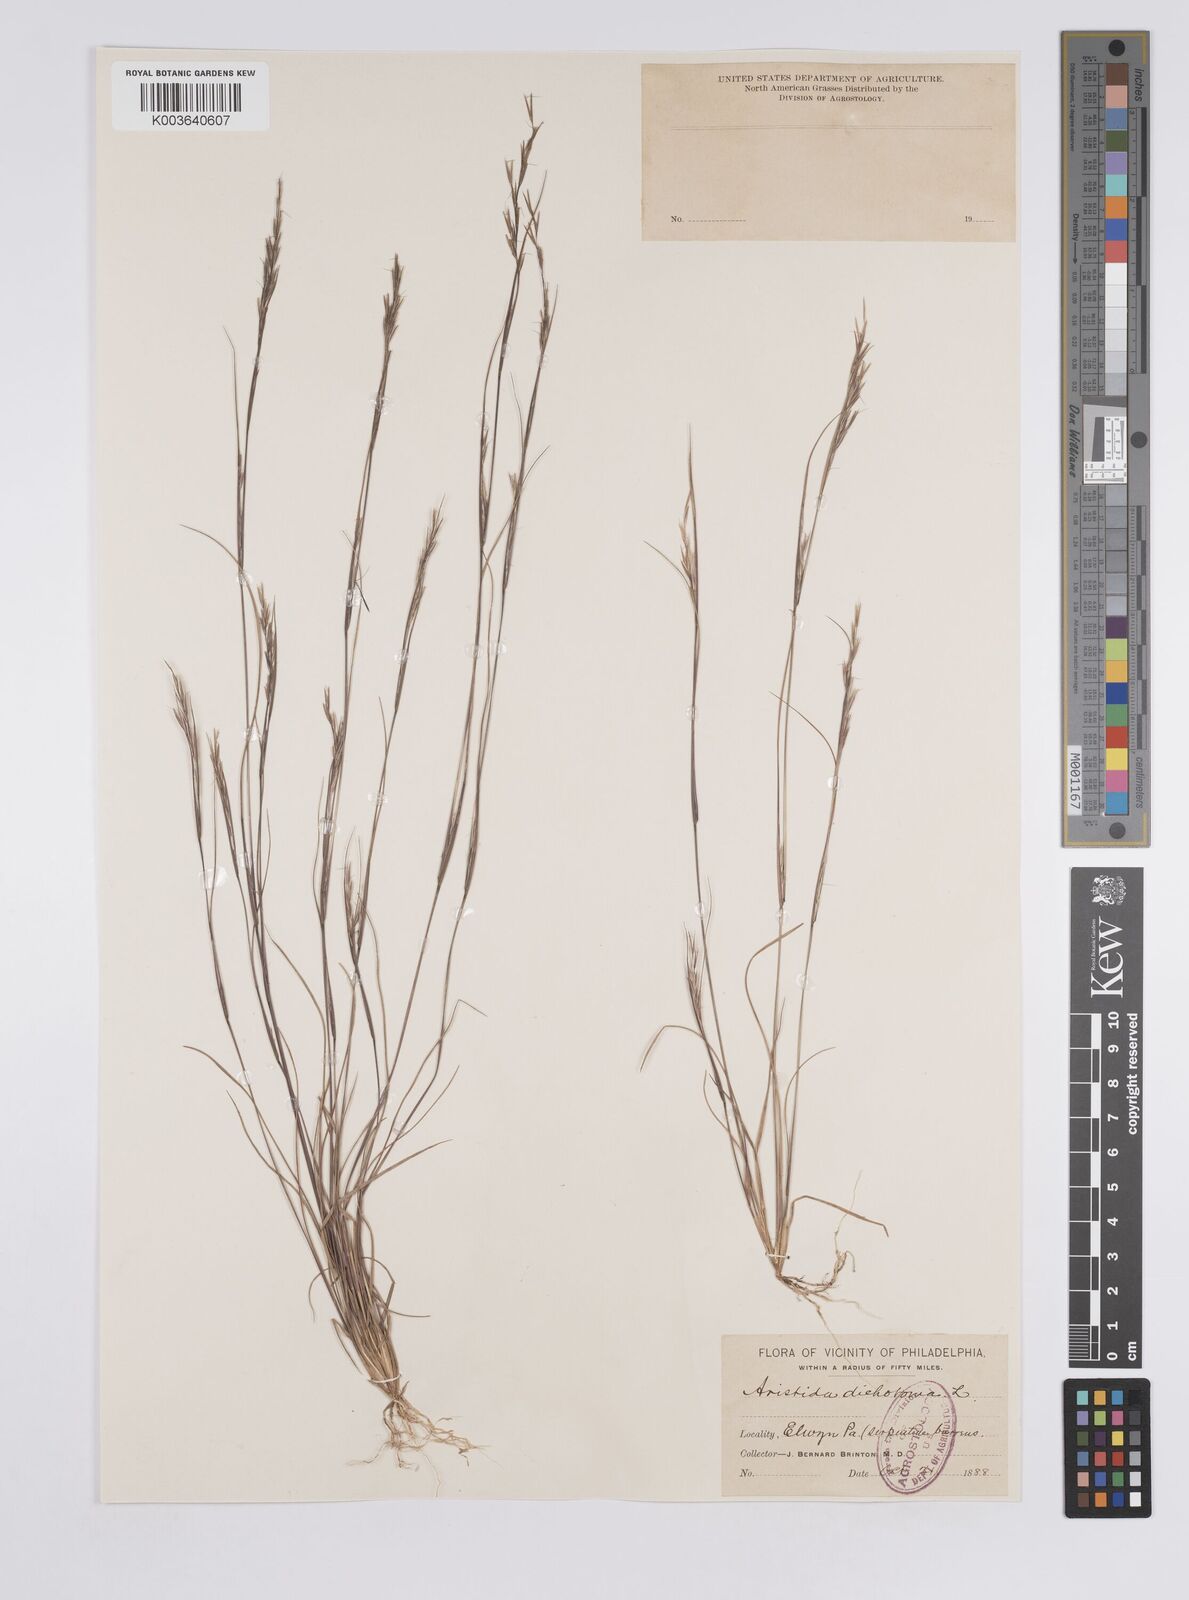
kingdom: Plantae
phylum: Tracheophyta
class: Liliopsida
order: Poales
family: Poaceae
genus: Aristida
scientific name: Aristida dichotoma
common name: Churchmouse three-awn
